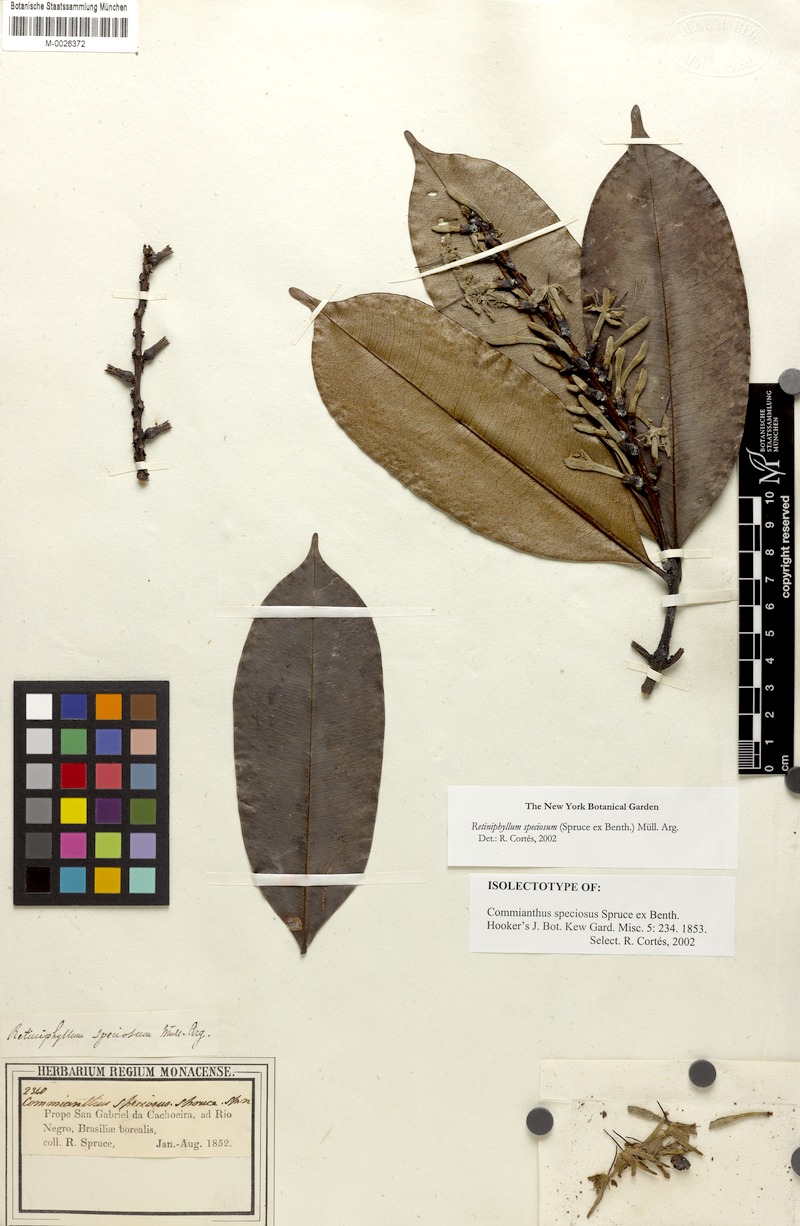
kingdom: Plantae
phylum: Tracheophyta
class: Magnoliopsida
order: Gentianales
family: Rubiaceae
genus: Retiniphyllum
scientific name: Retiniphyllum speciosum
